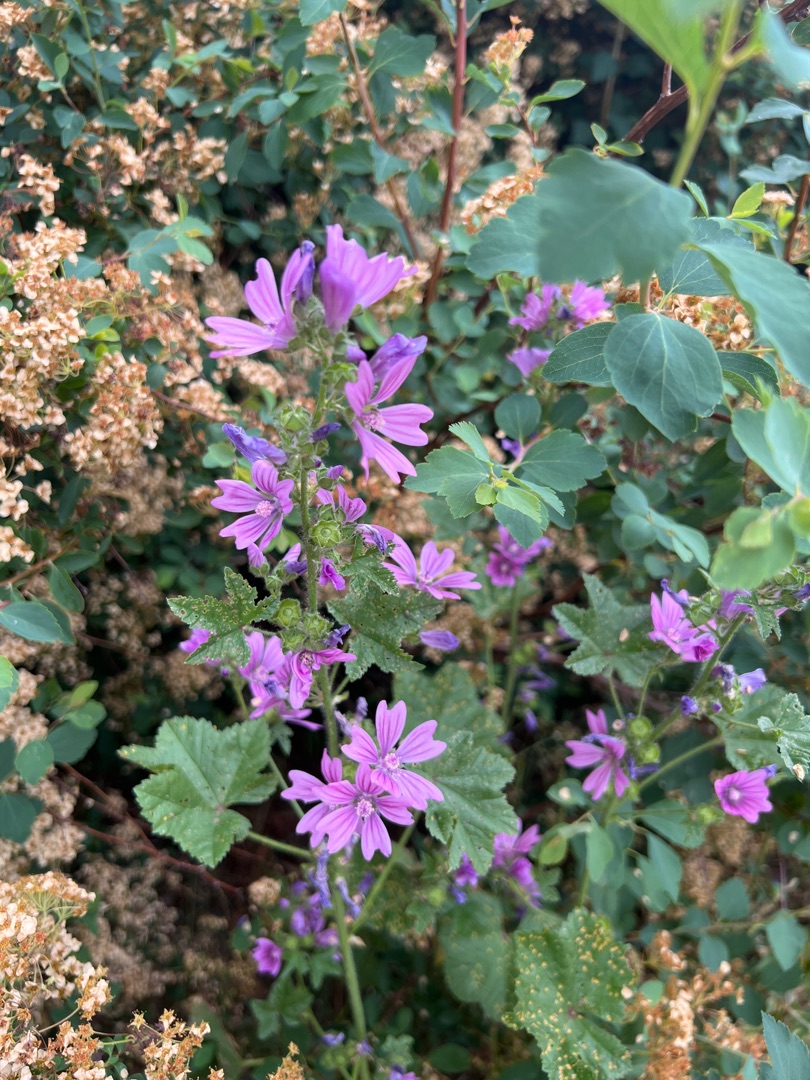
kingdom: Plantae
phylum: Tracheophyta
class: Magnoliopsida
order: Malvales
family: Malvaceae
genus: Malva
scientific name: Malva sylvestris
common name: Almindelig katost
